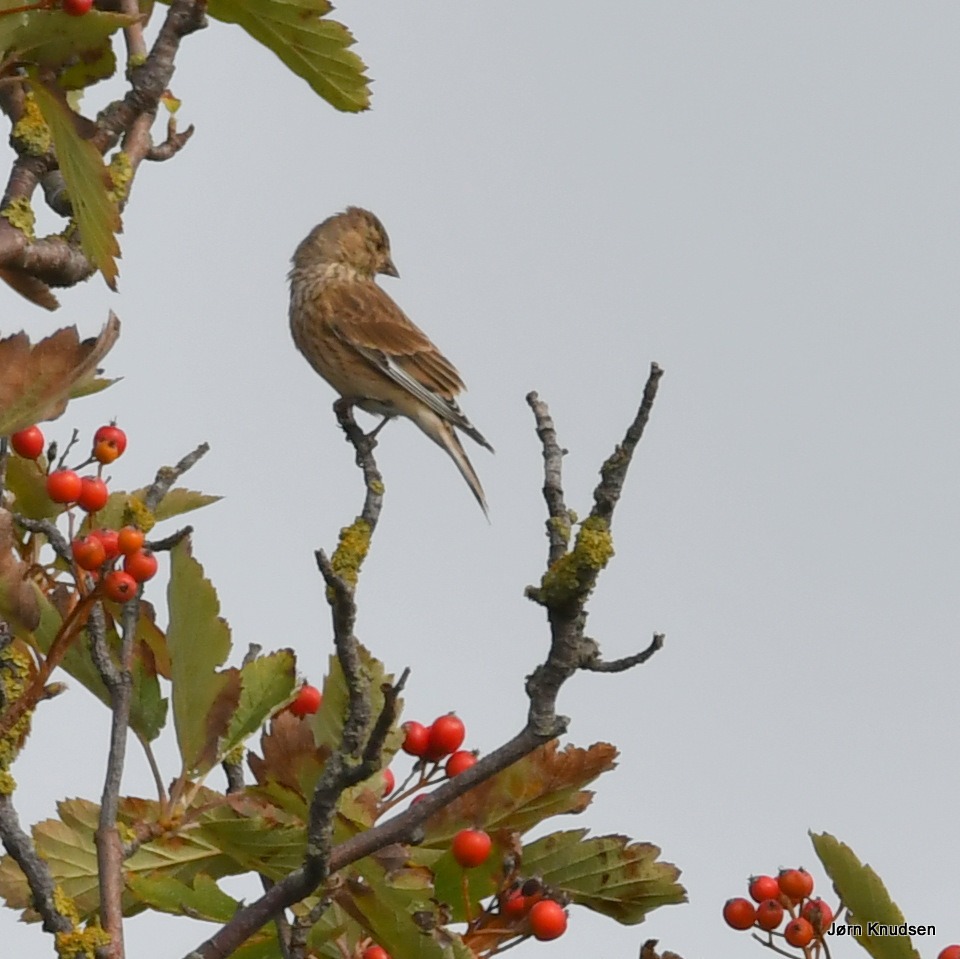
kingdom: Animalia
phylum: Chordata
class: Aves
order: Passeriformes
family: Fringillidae
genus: Linaria
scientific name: Linaria cannabina
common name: Tornirisk
